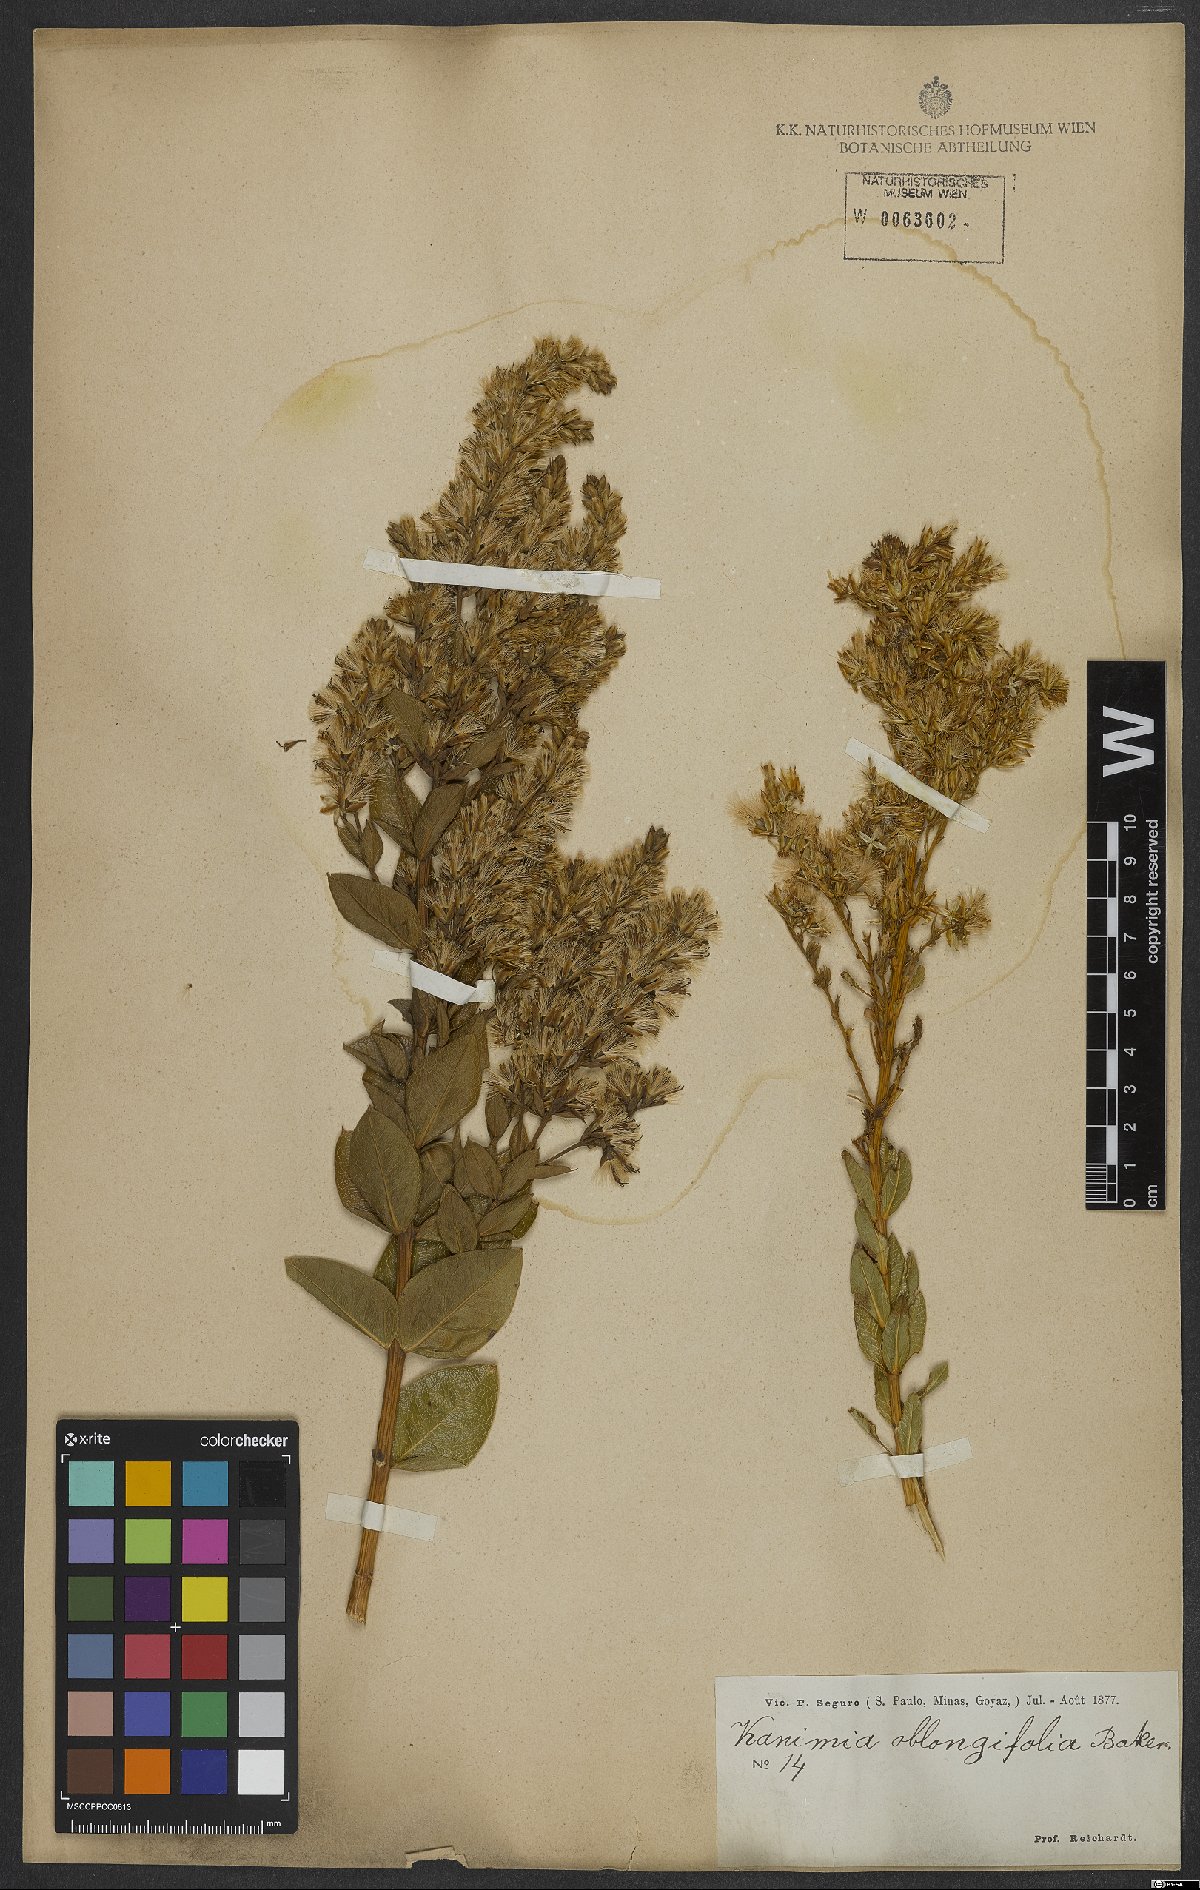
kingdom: Plantae
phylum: Tracheophyta
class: Magnoliopsida
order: Asterales
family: Asteraceae
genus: Mikania
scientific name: Mikania oblongifolia
